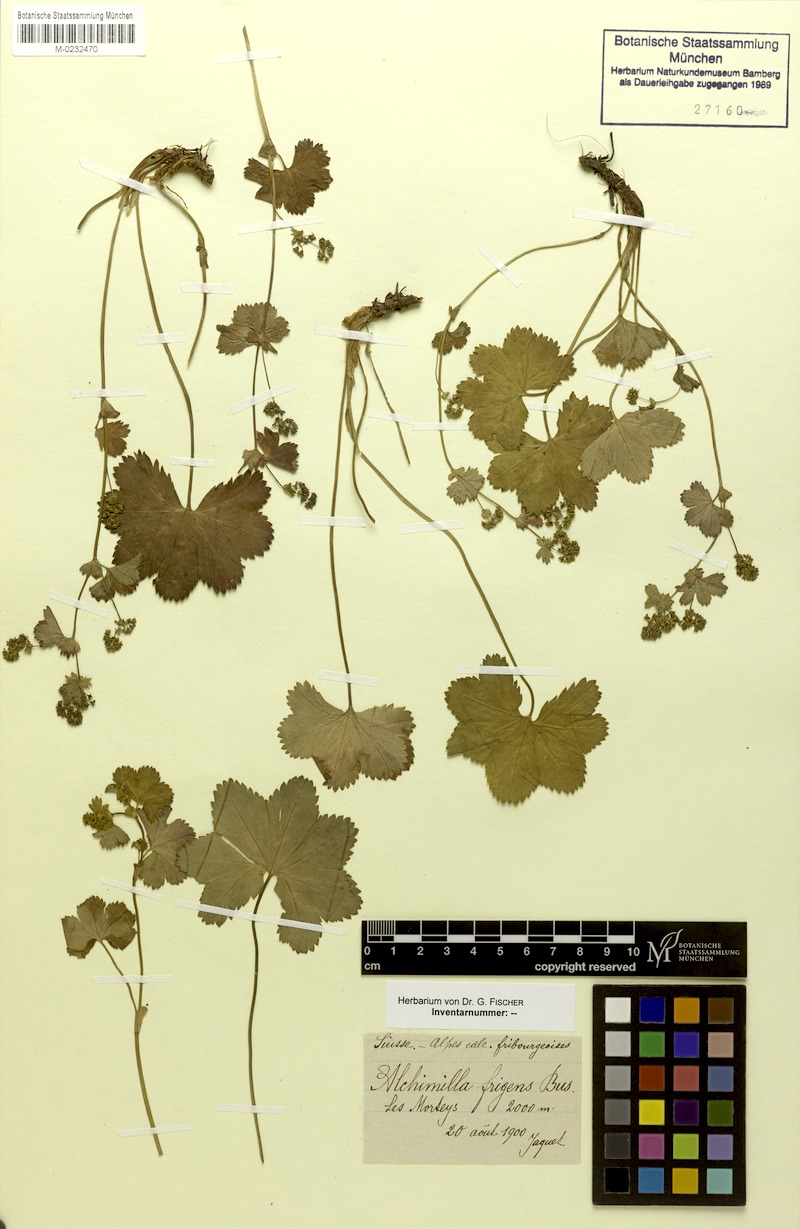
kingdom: Plantae
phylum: Tracheophyta
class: Magnoliopsida
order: Rosales
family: Rosaceae
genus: Alchemilla
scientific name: Alchemilla frigens
